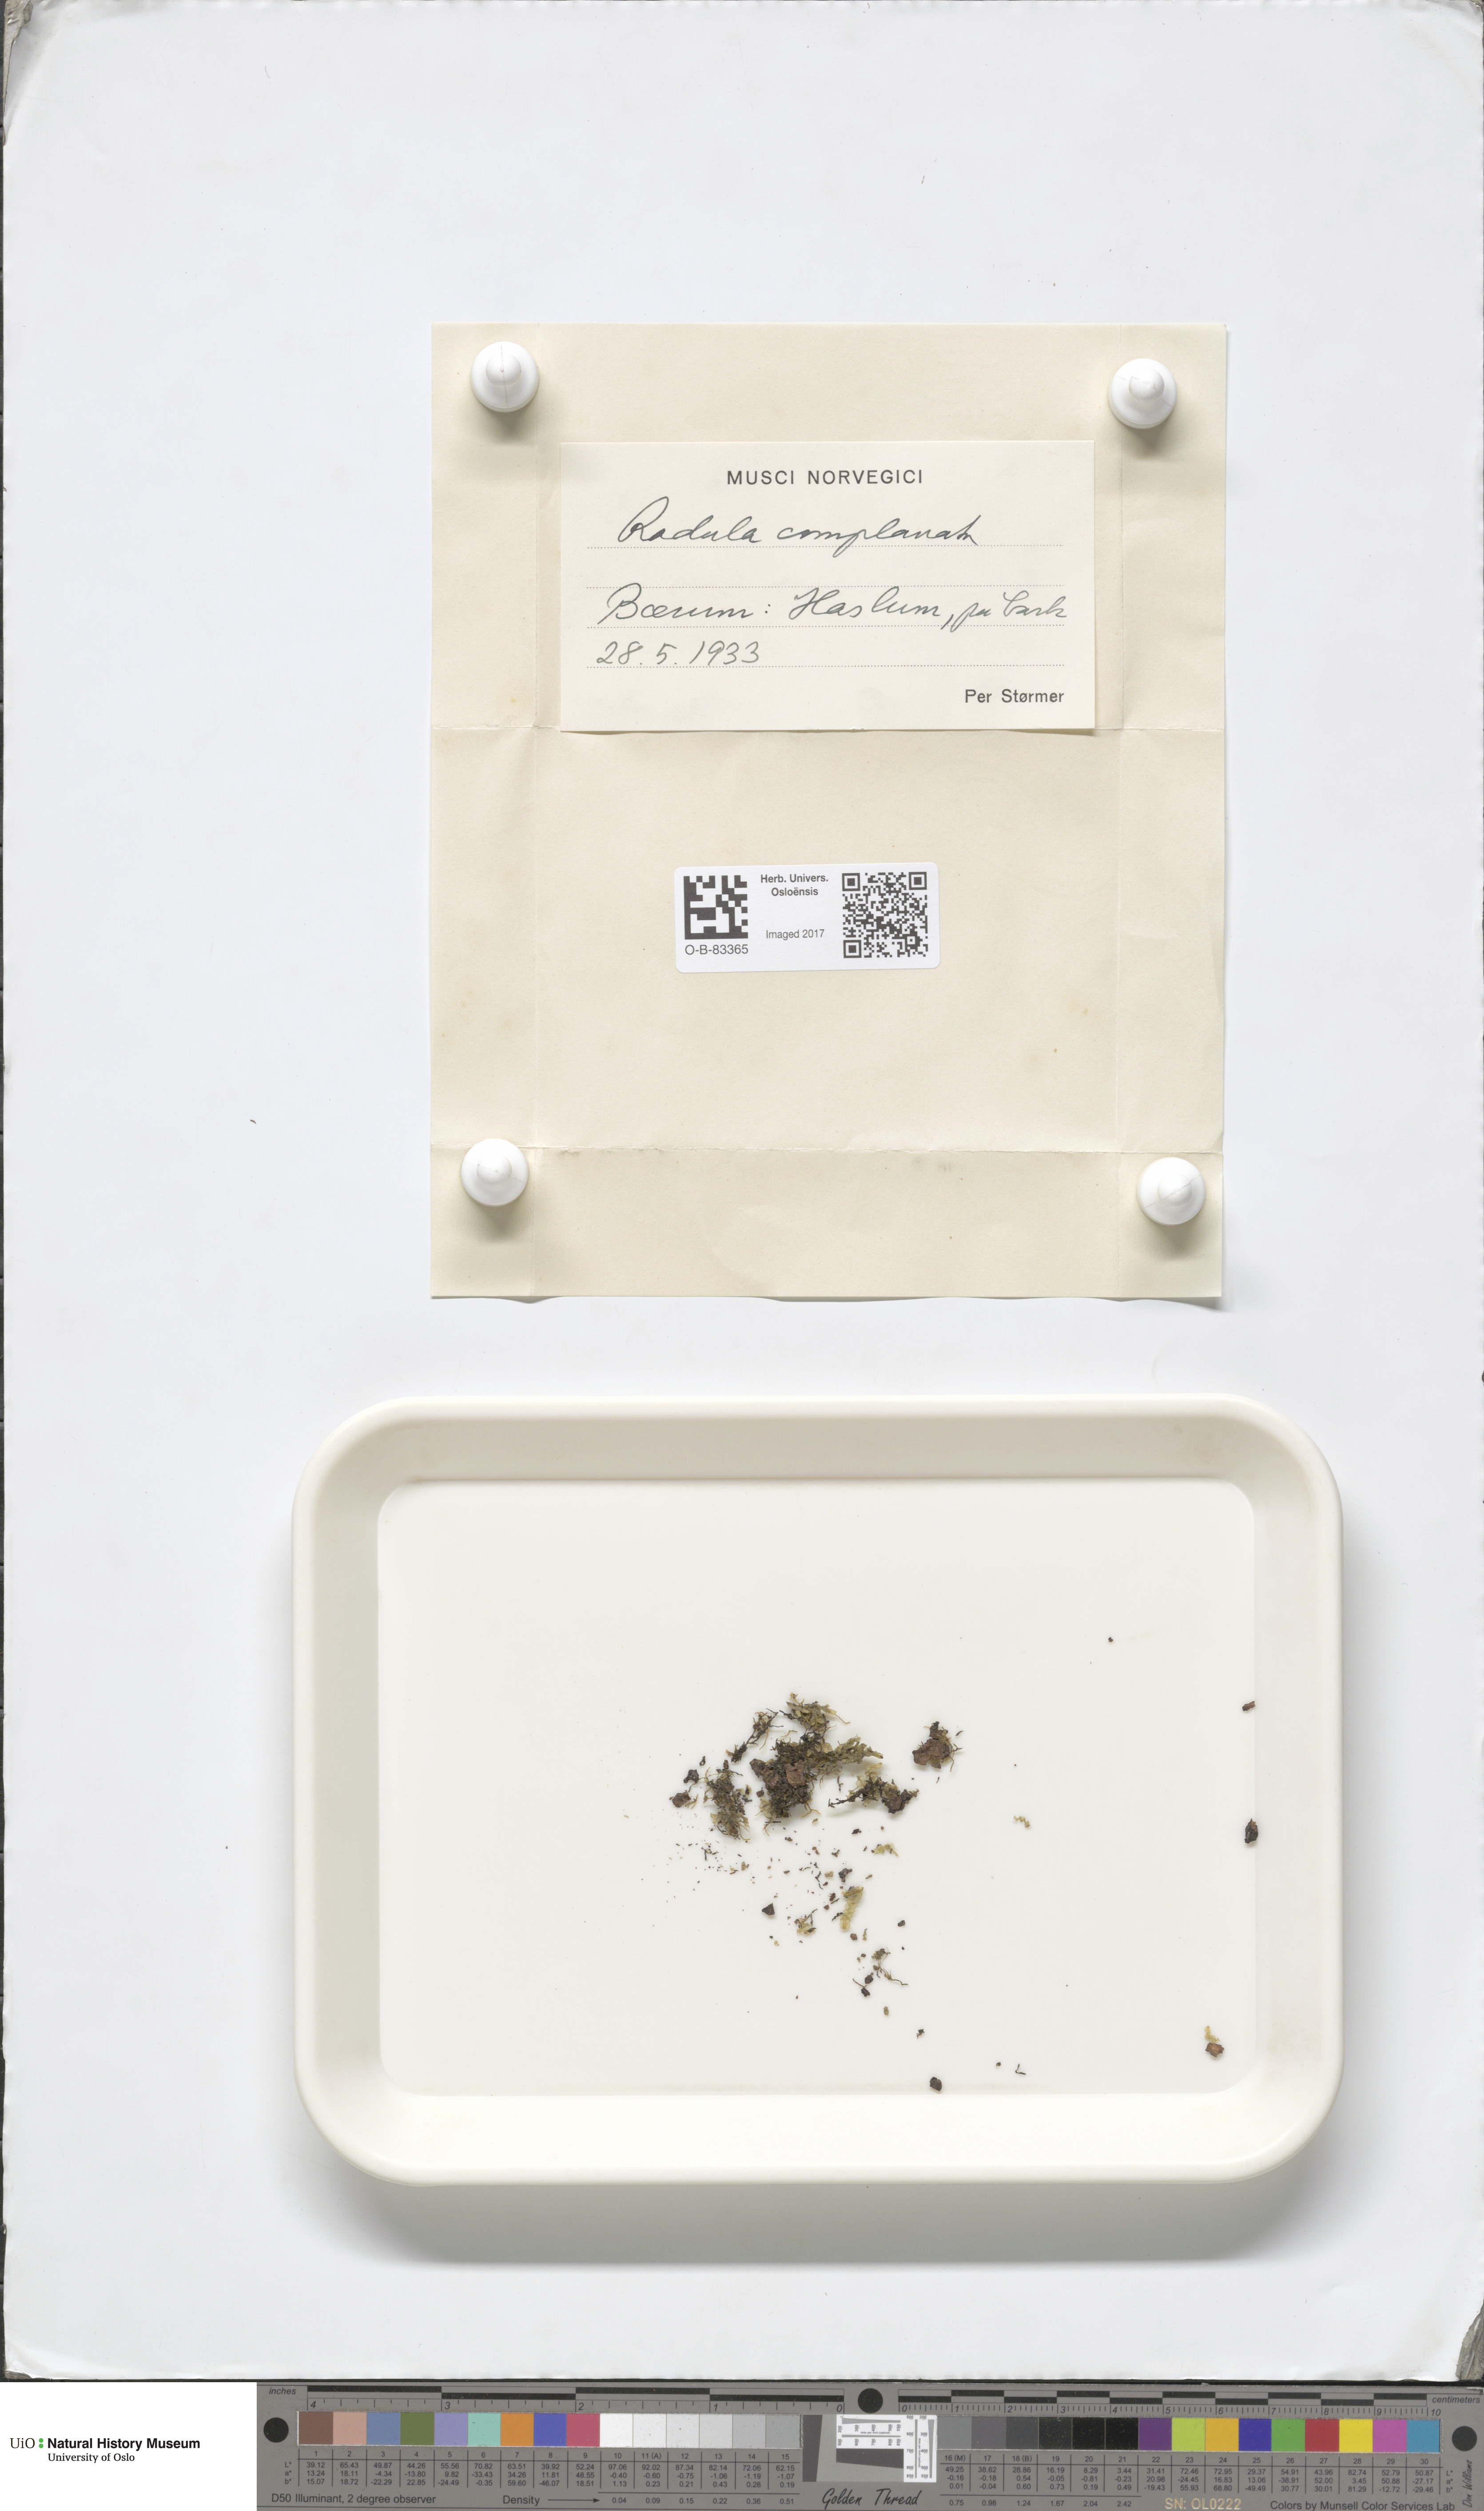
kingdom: Plantae
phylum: Marchantiophyta
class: Jungermanniopsida
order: Porellales
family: Radulaceae
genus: Radula
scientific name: Radula complanata
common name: Flat-leaved scalewort
